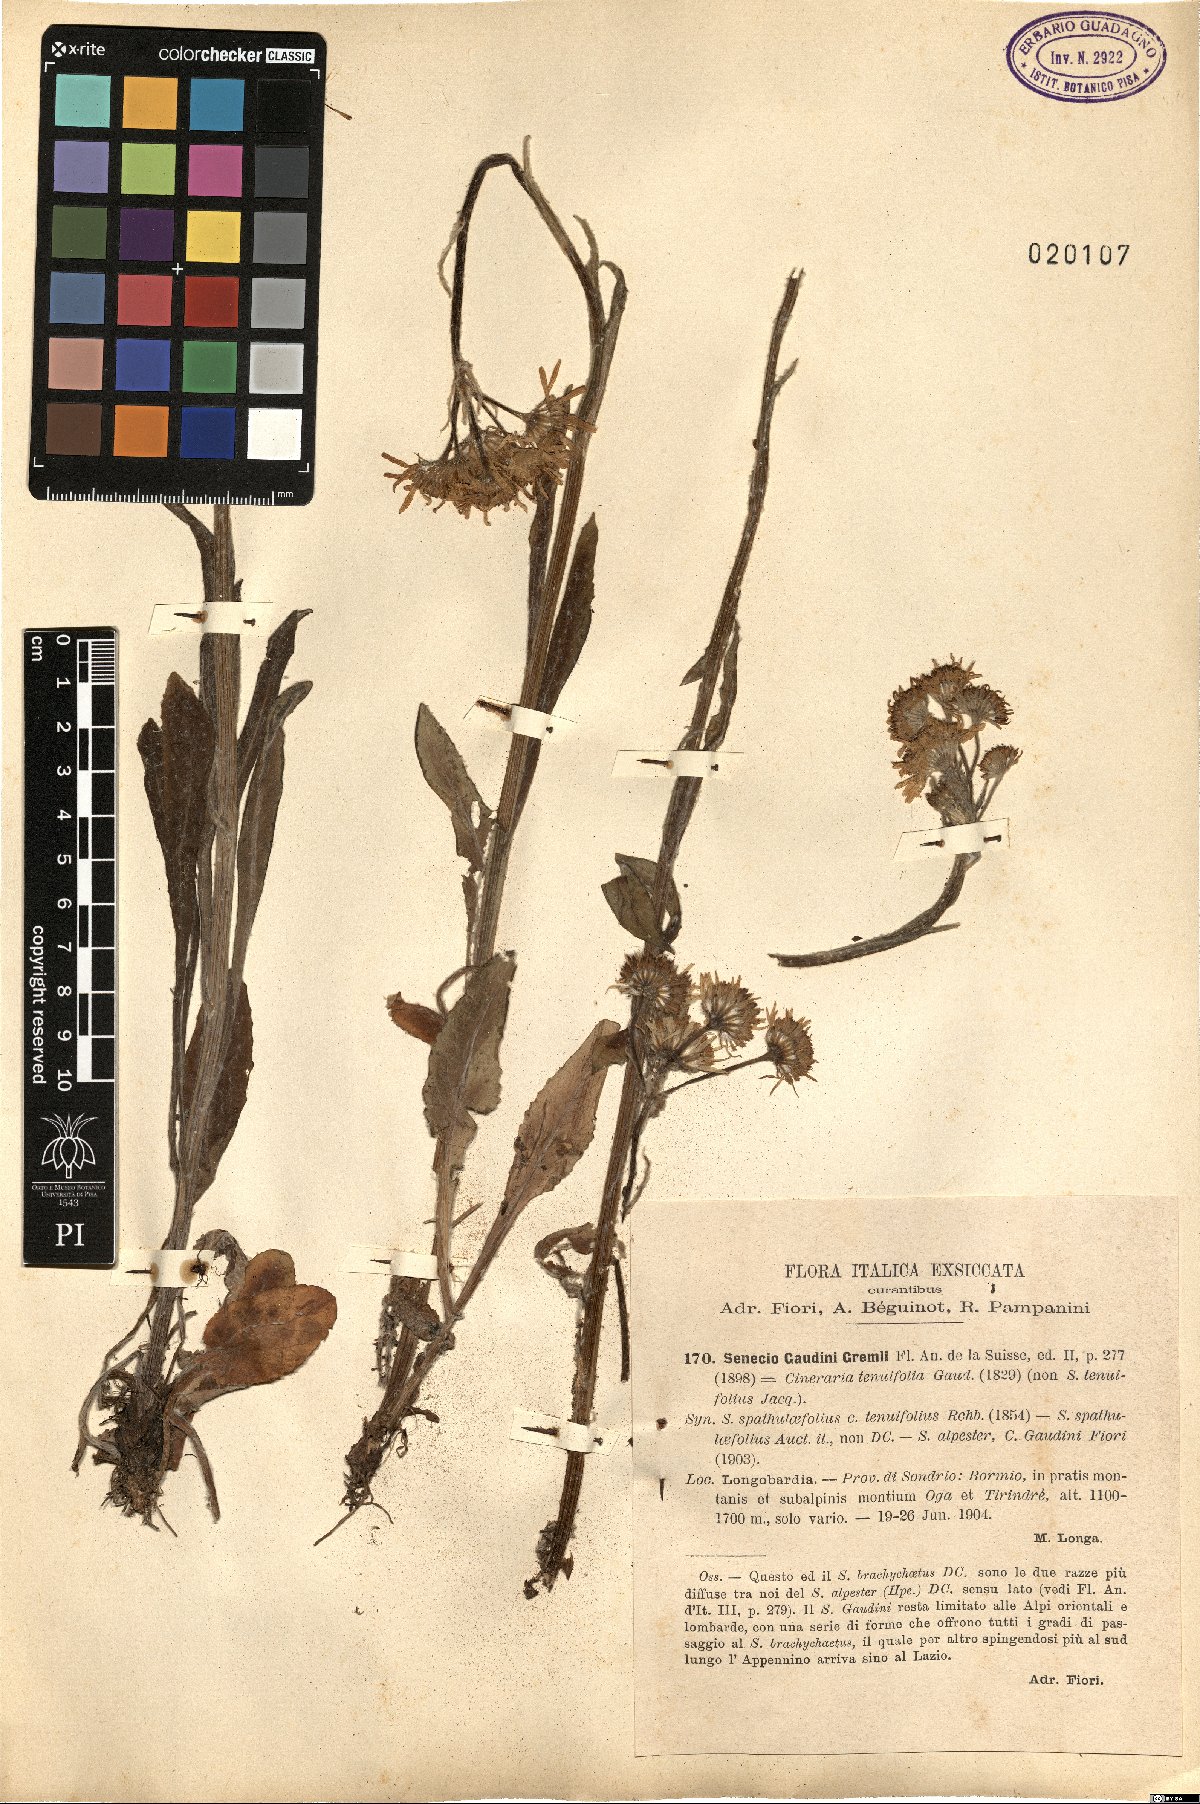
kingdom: Plantae
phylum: Tracheophyta
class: Magnoliopsida
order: Asterales
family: Asteraceae
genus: Tephroseris
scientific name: Tephroseris tenuifolia
